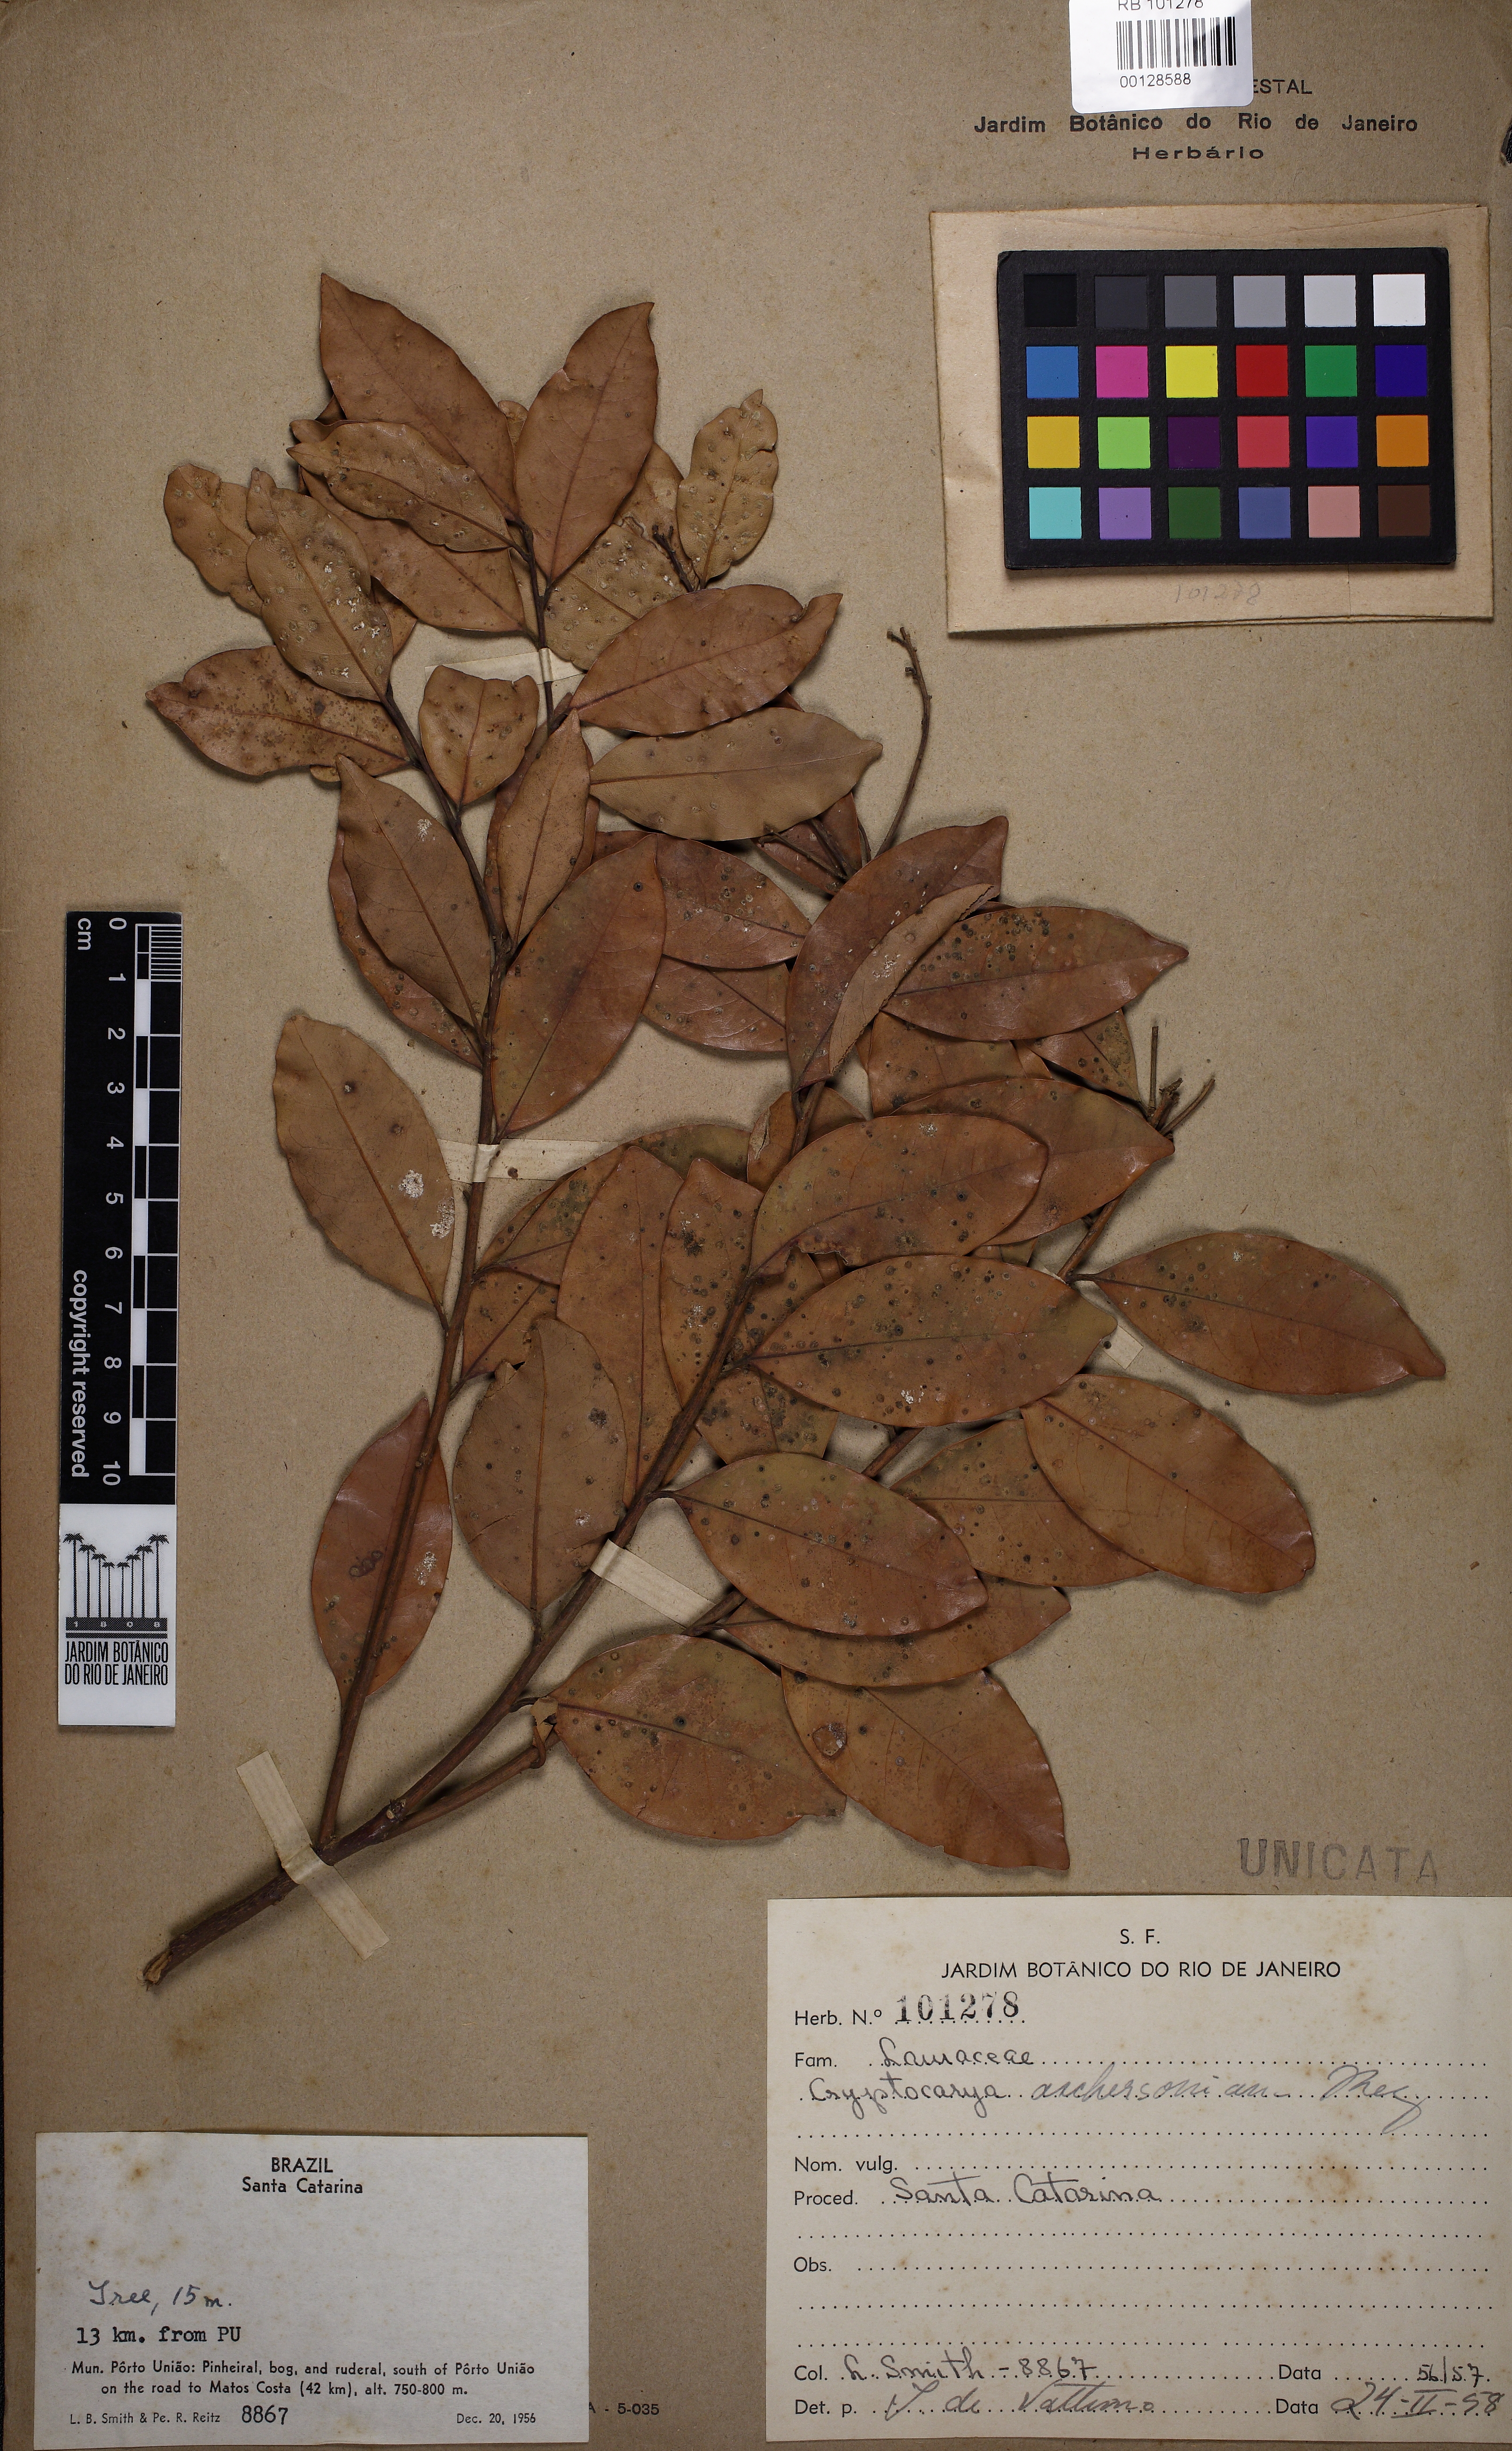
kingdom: Plantae
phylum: Tracheophyta
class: Magnoliopsida
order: Laurales
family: Lauraceae
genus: Cryptocarya
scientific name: Cryptocarya aschersoniana
